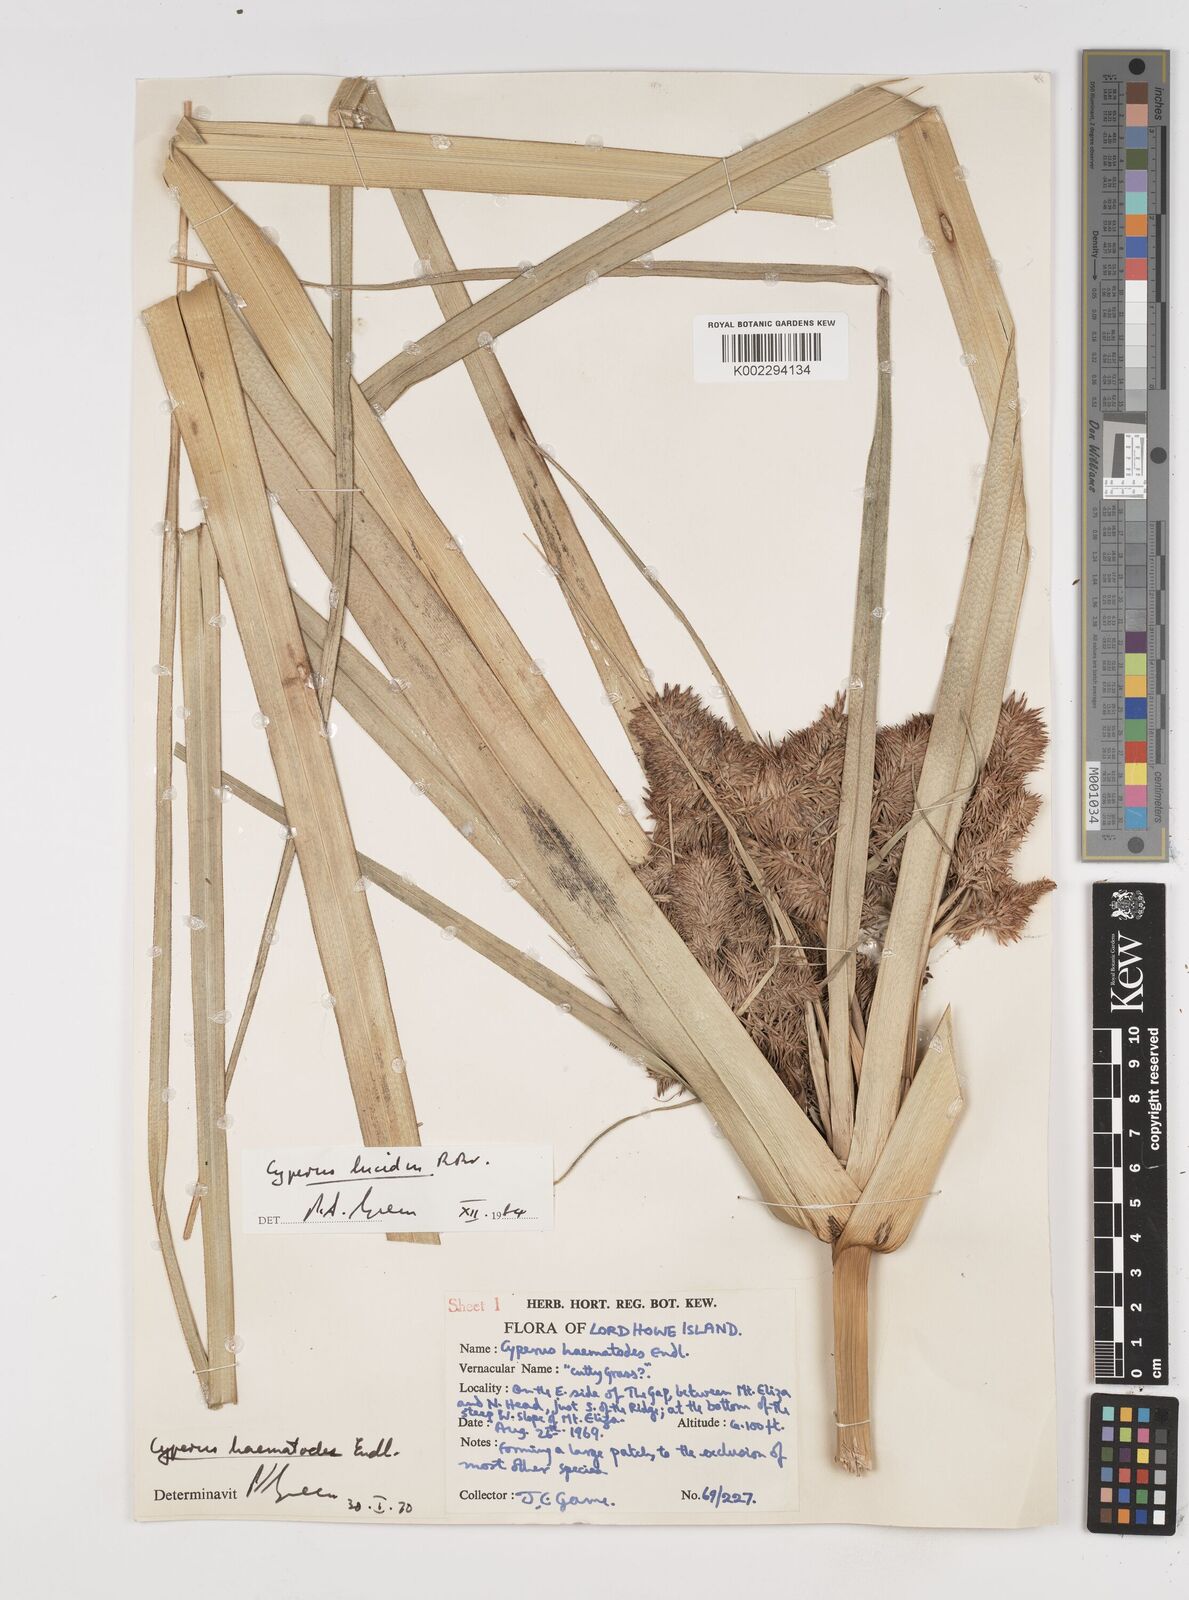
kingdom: Plantae
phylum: Tracheophyta
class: Liliopsida
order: Poales
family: Cyperaceae
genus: Cyperus
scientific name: Cyperus lucidus
